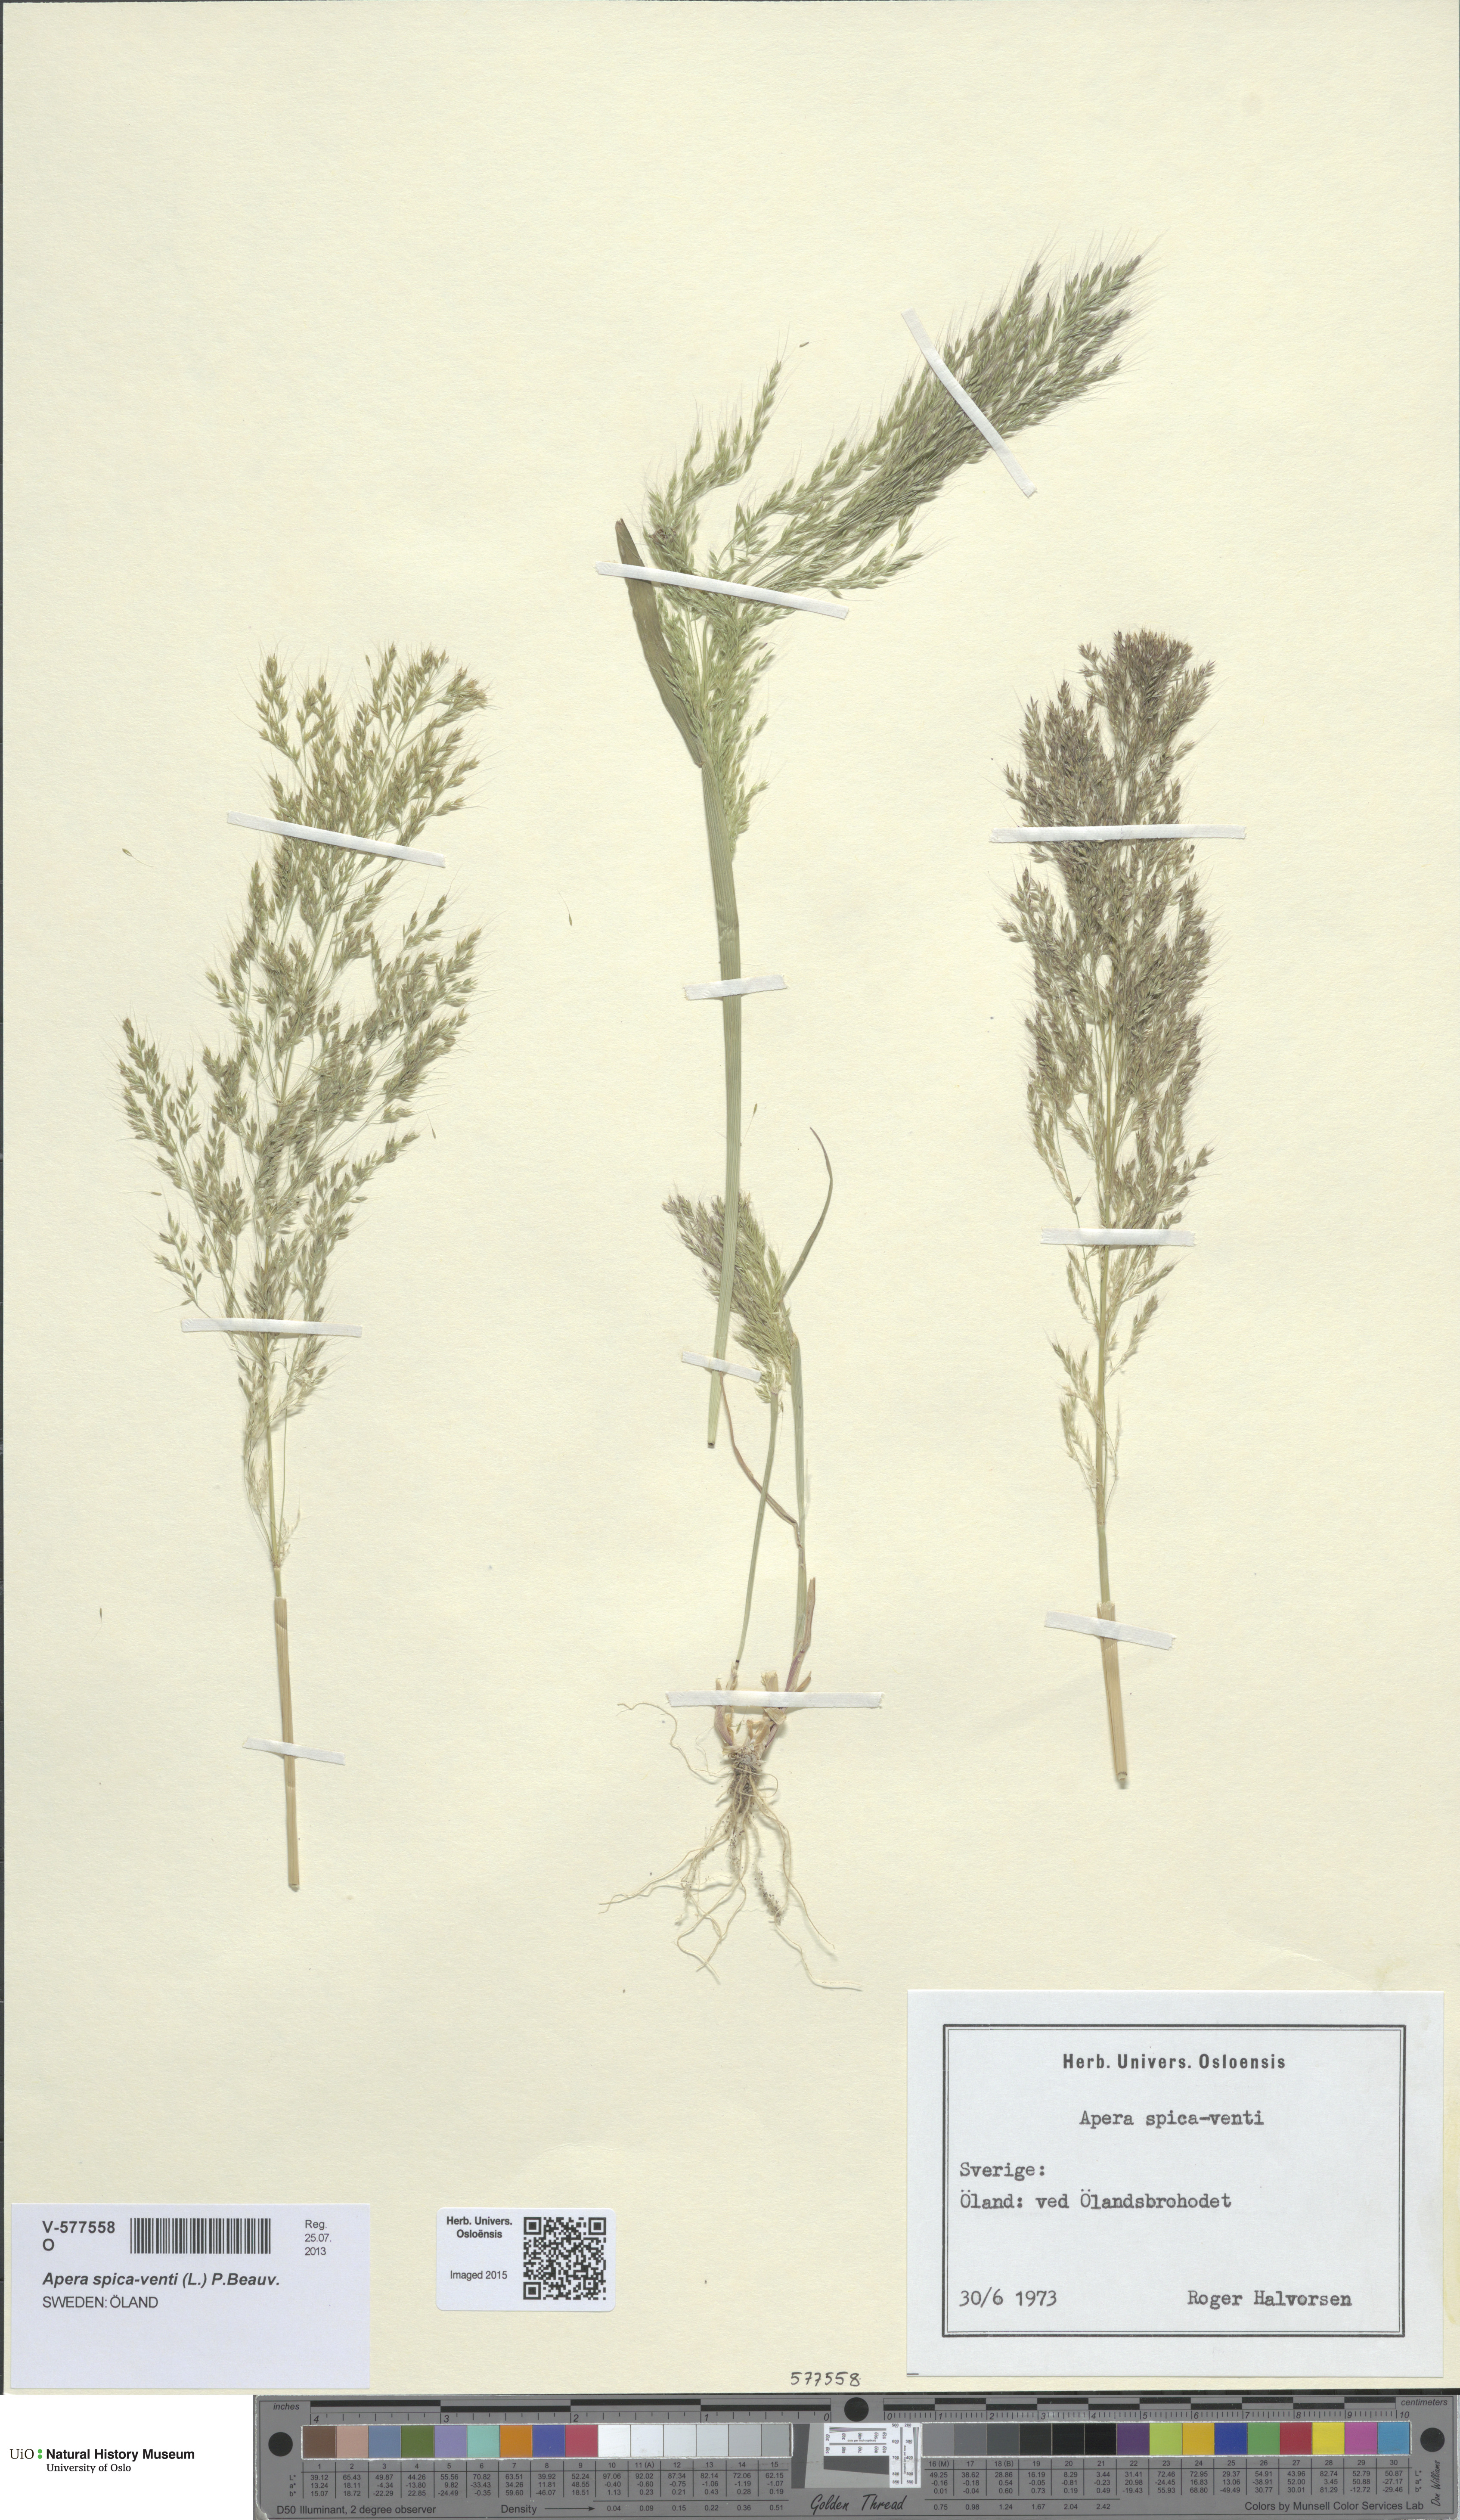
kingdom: Plantae
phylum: Tracheophyta
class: Liliopsida
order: Poales
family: Poaceae
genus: Apera
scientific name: Apera spica-venti
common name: Loose silky-bent
